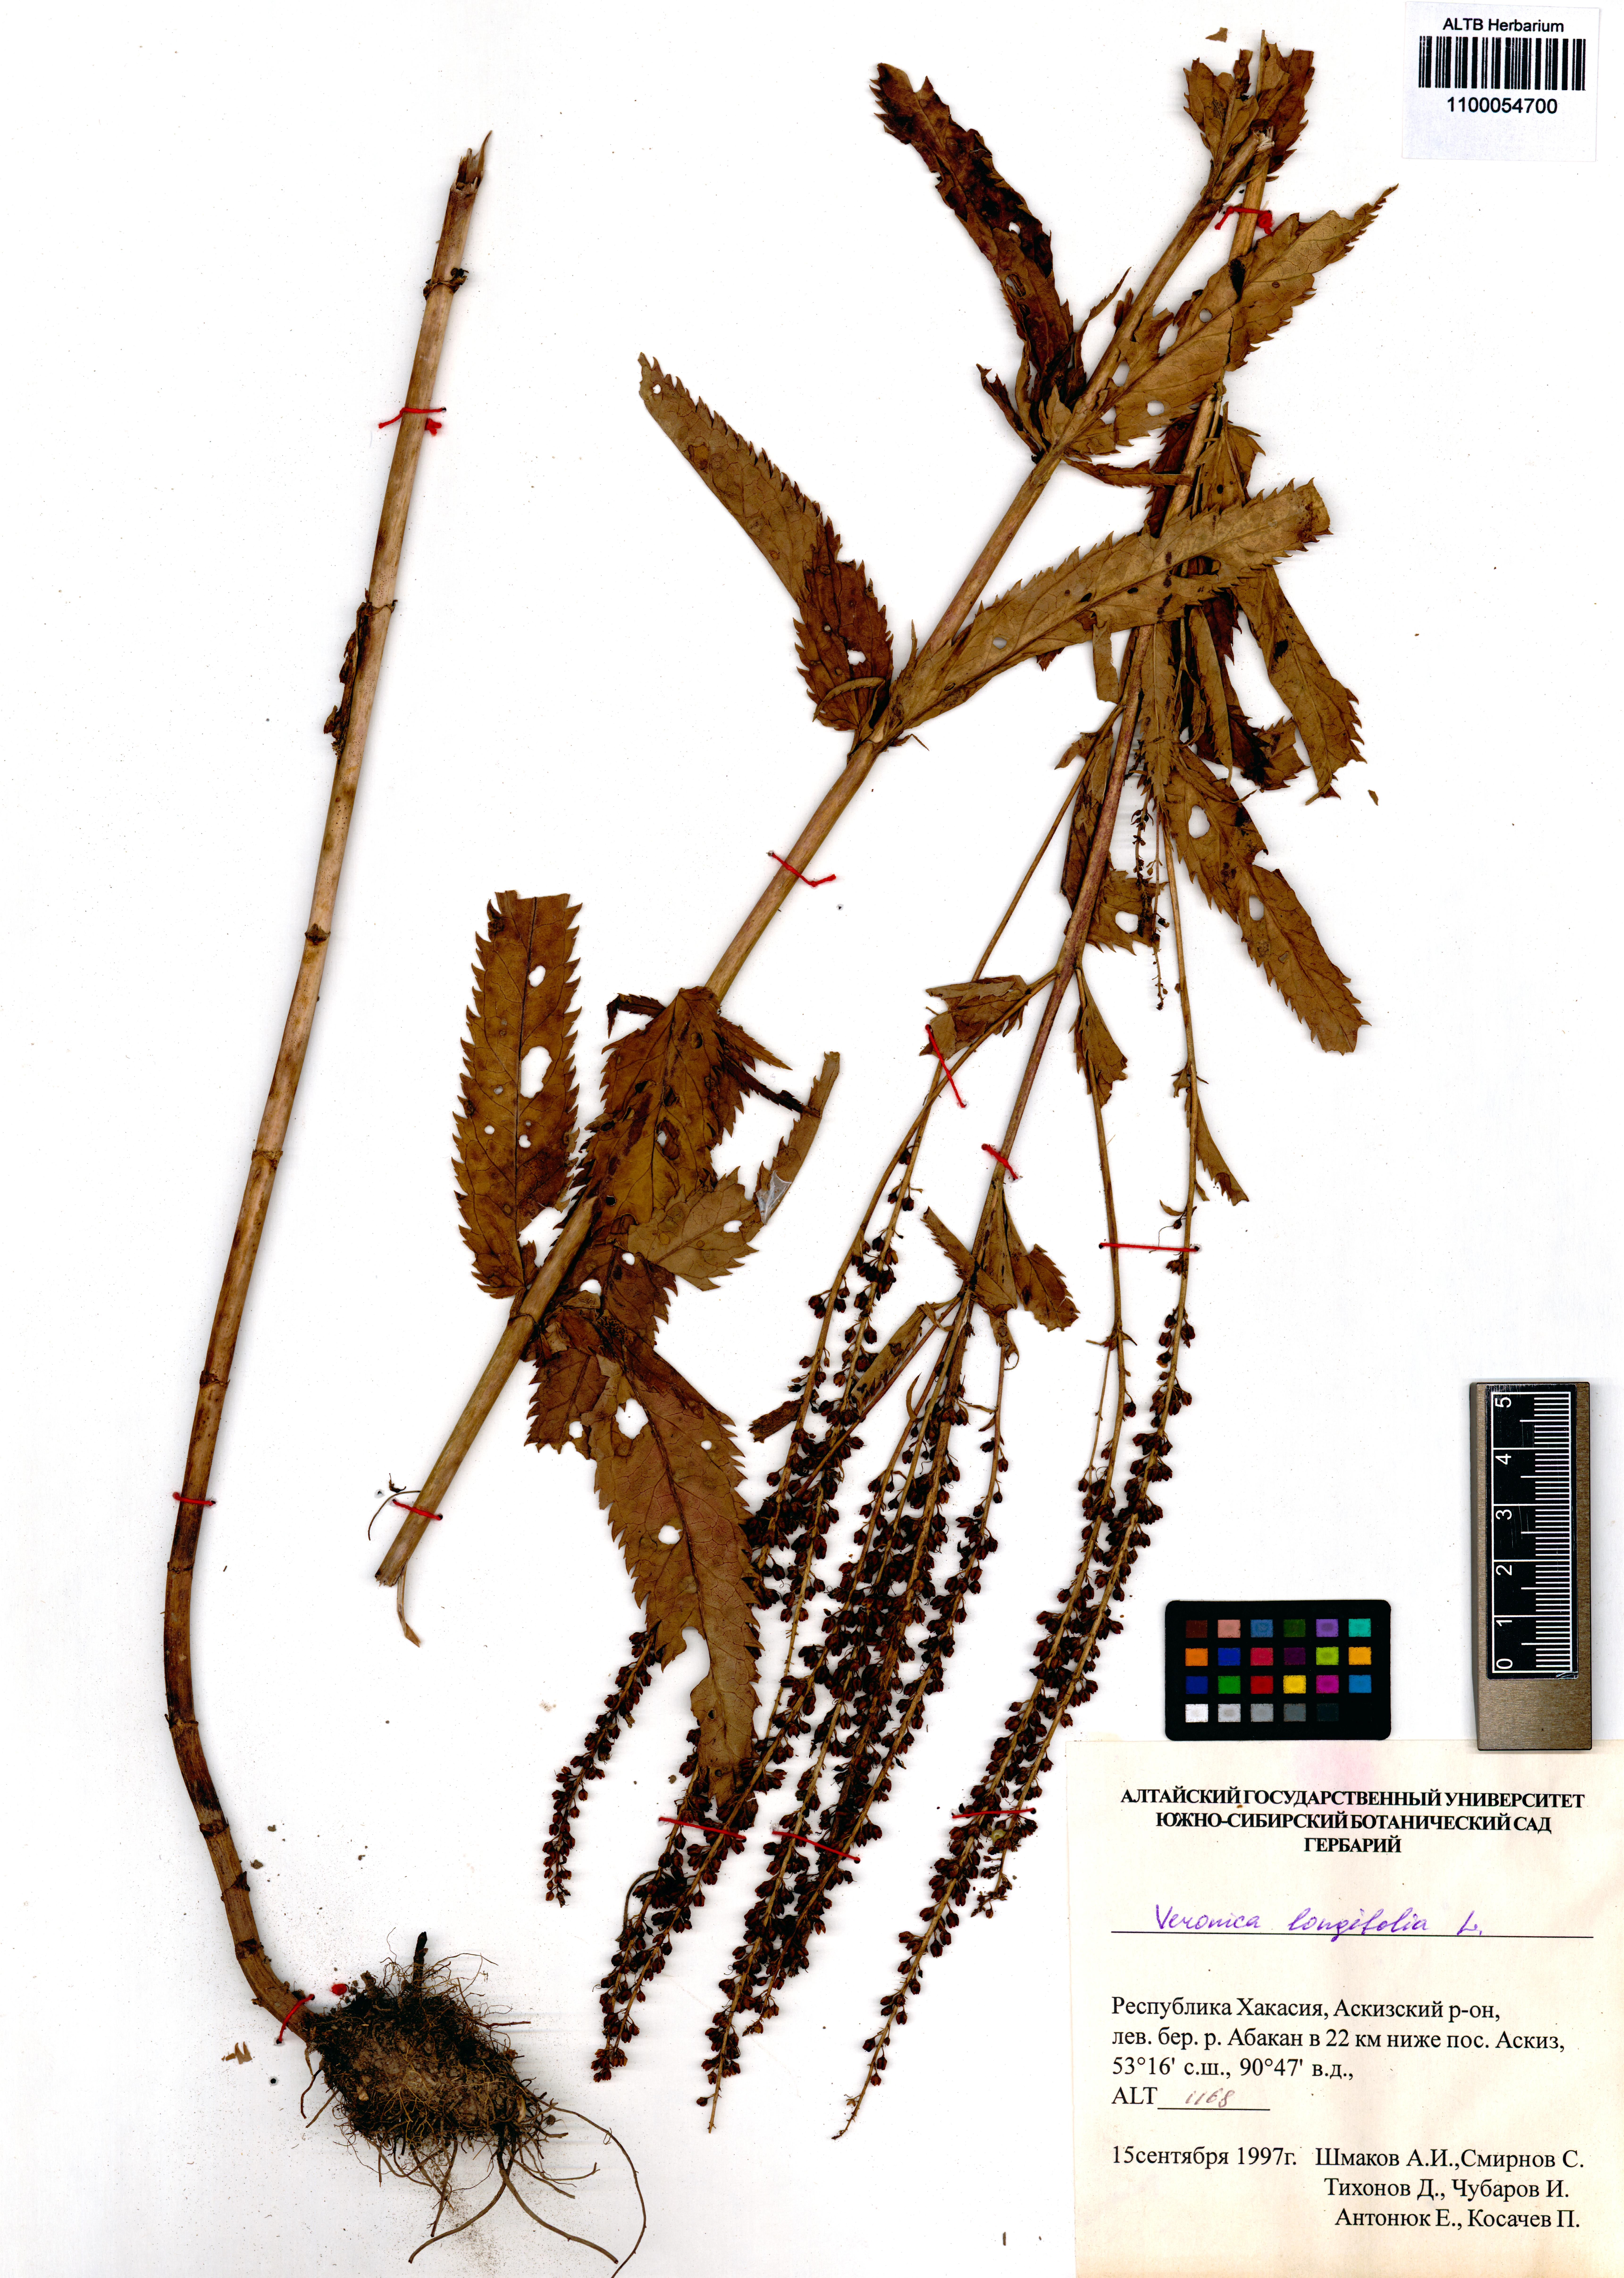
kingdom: Plantae
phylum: Tracheophyta
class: Magnoliopsida
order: Lamiales
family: Plantaginaceae
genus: Veronica
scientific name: Veronica longifolia
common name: Garden speedwell
